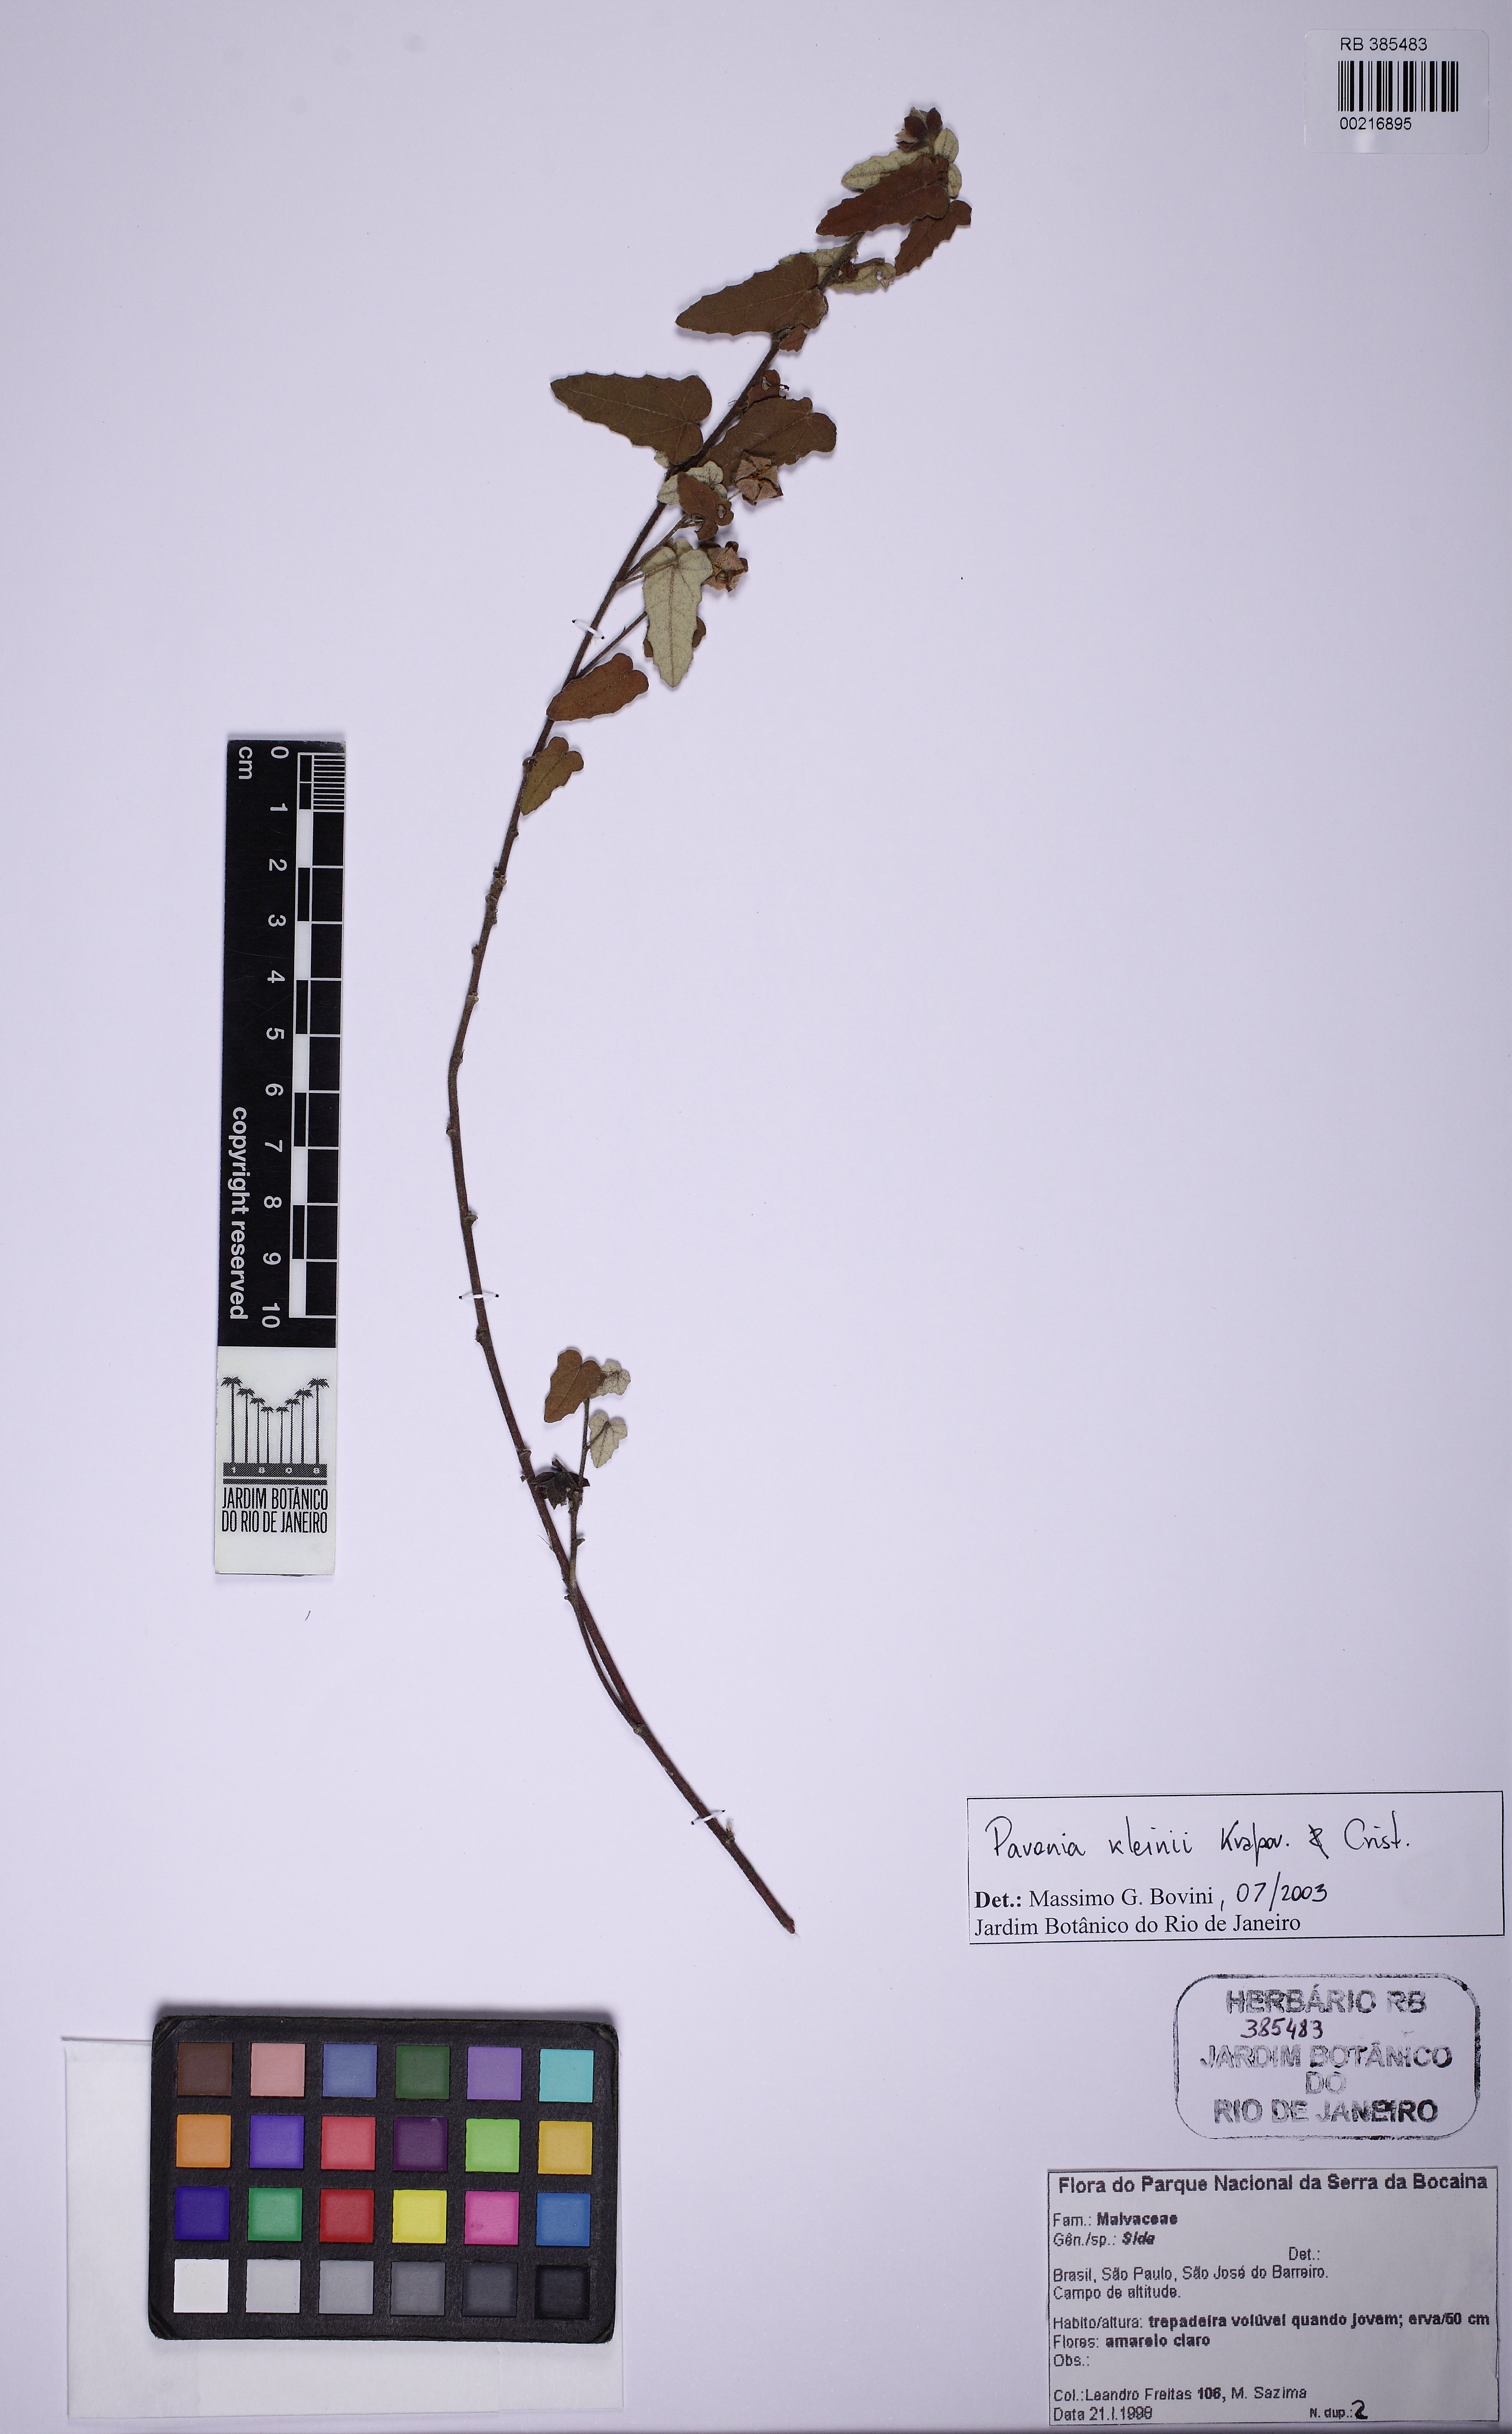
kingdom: Plantae
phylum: Tracheophyta
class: Magnoliopsida
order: Malvales
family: Malvaceae
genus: Pavonia
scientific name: Pavonia kleinii
